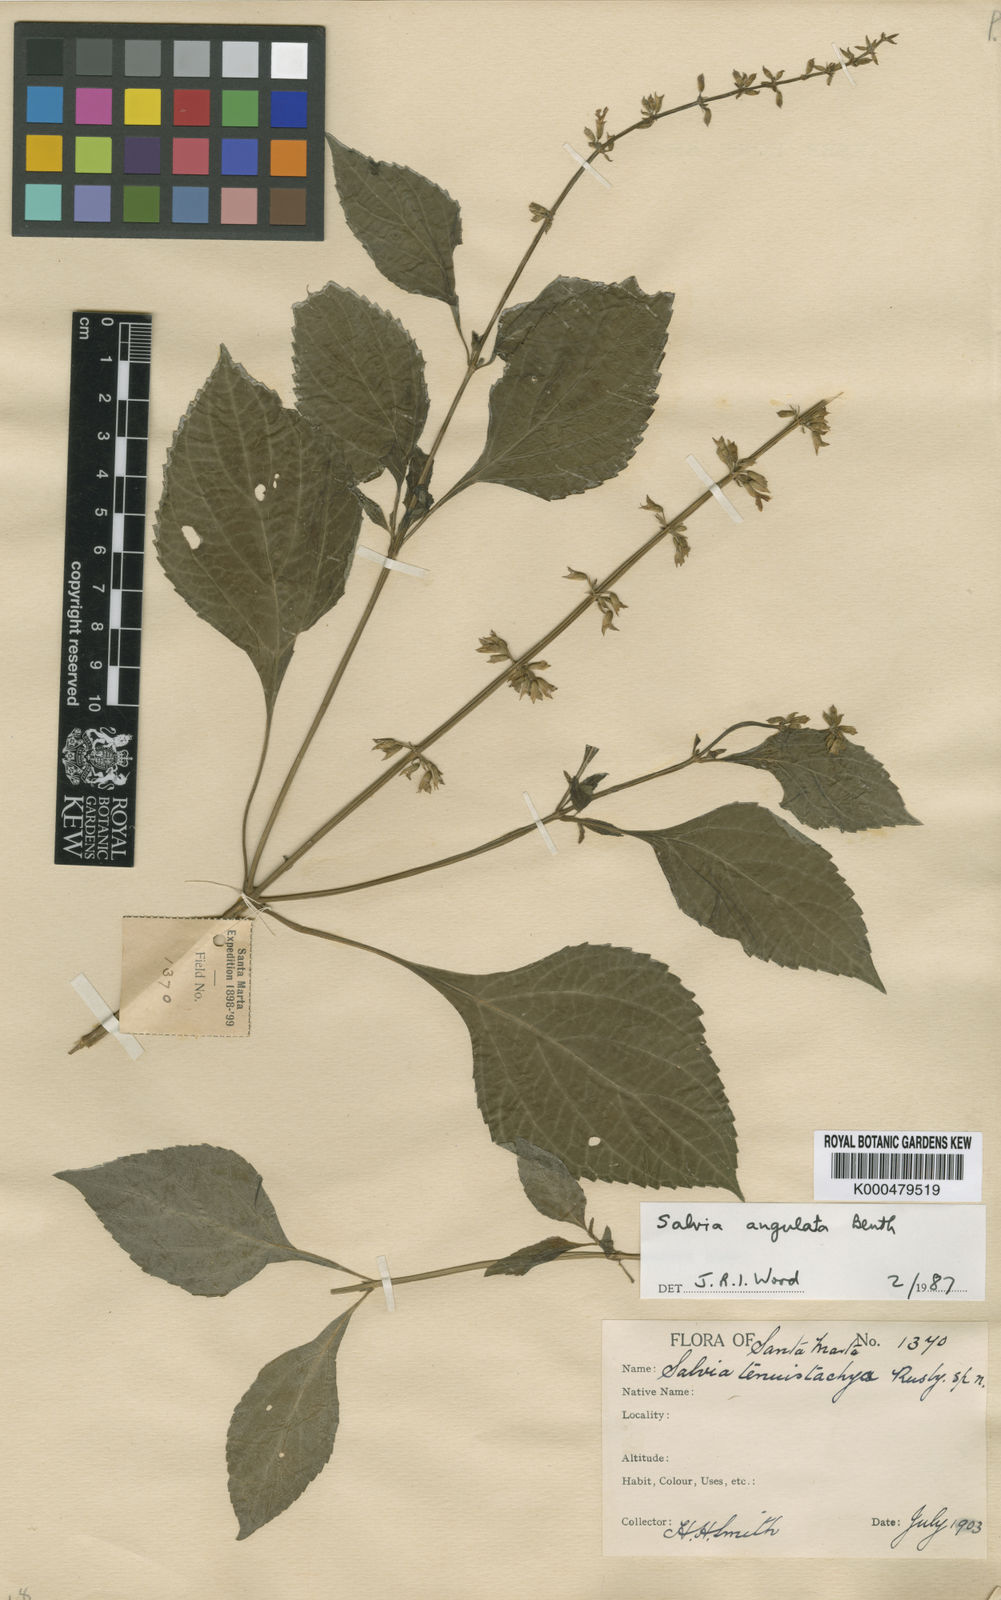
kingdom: Plantae
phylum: Tracheophyta
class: Magnoliopsida
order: Lamiales
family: Lamiaceae
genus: Salvia
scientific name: Salvia angulata
